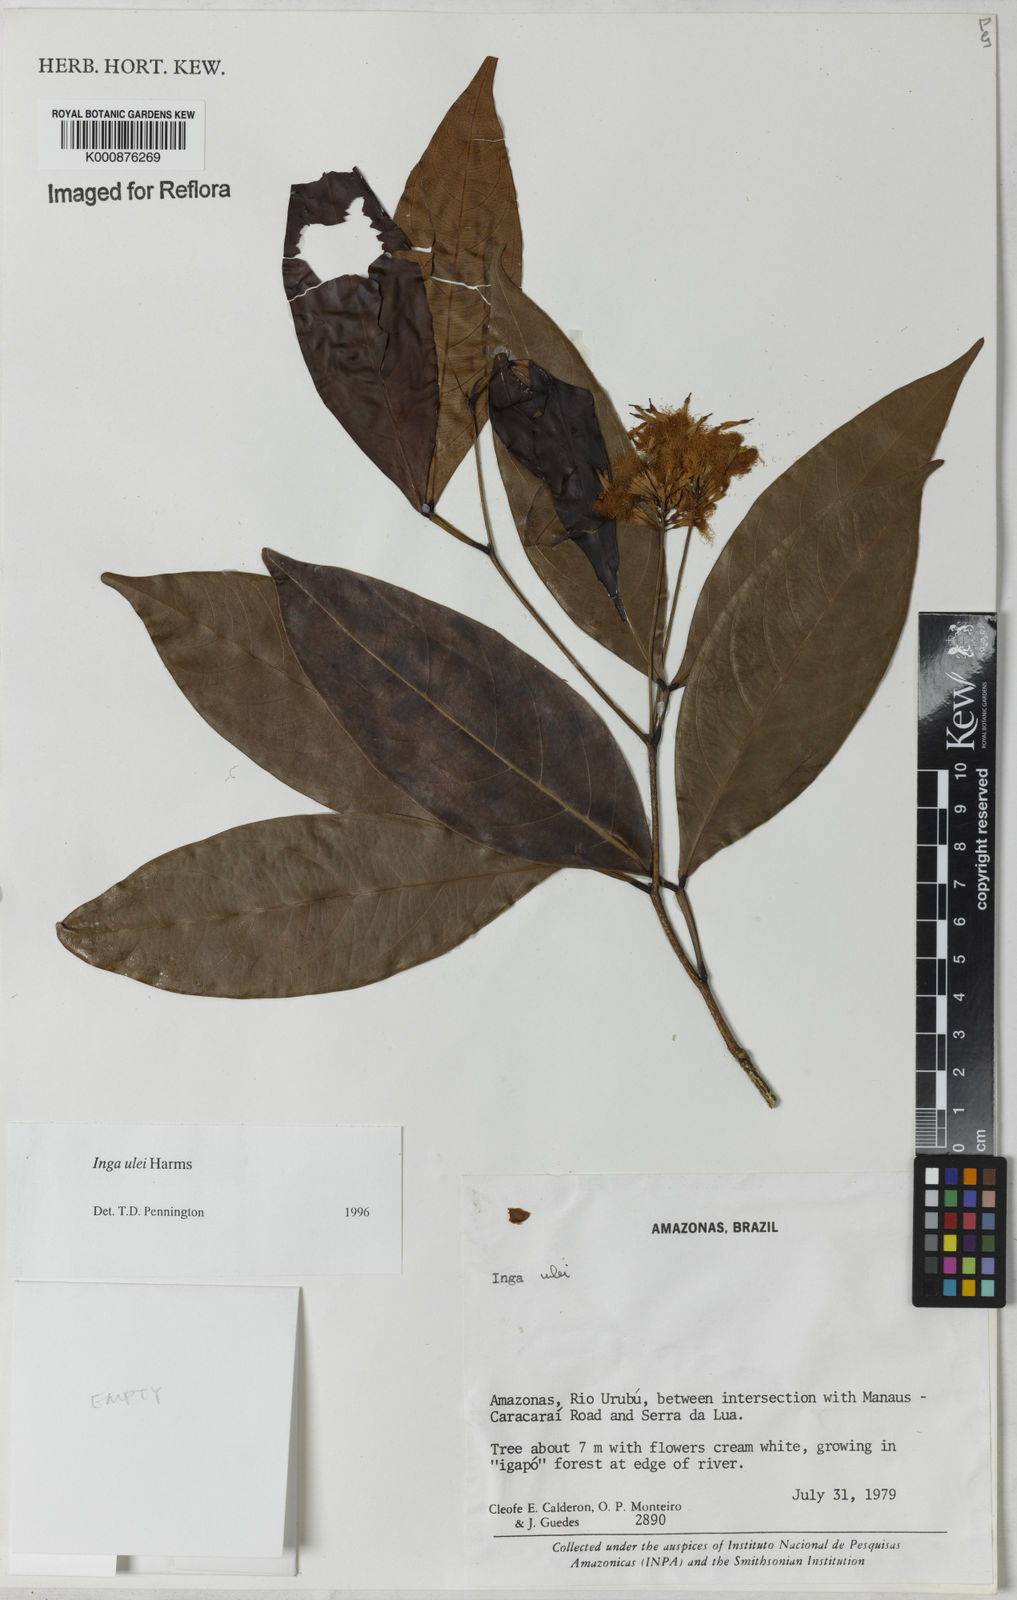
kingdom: Plantae
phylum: Tracheophyta
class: Magnoliopsida
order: Fabales
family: Fabaceae
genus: Inga
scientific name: Inga ulei
